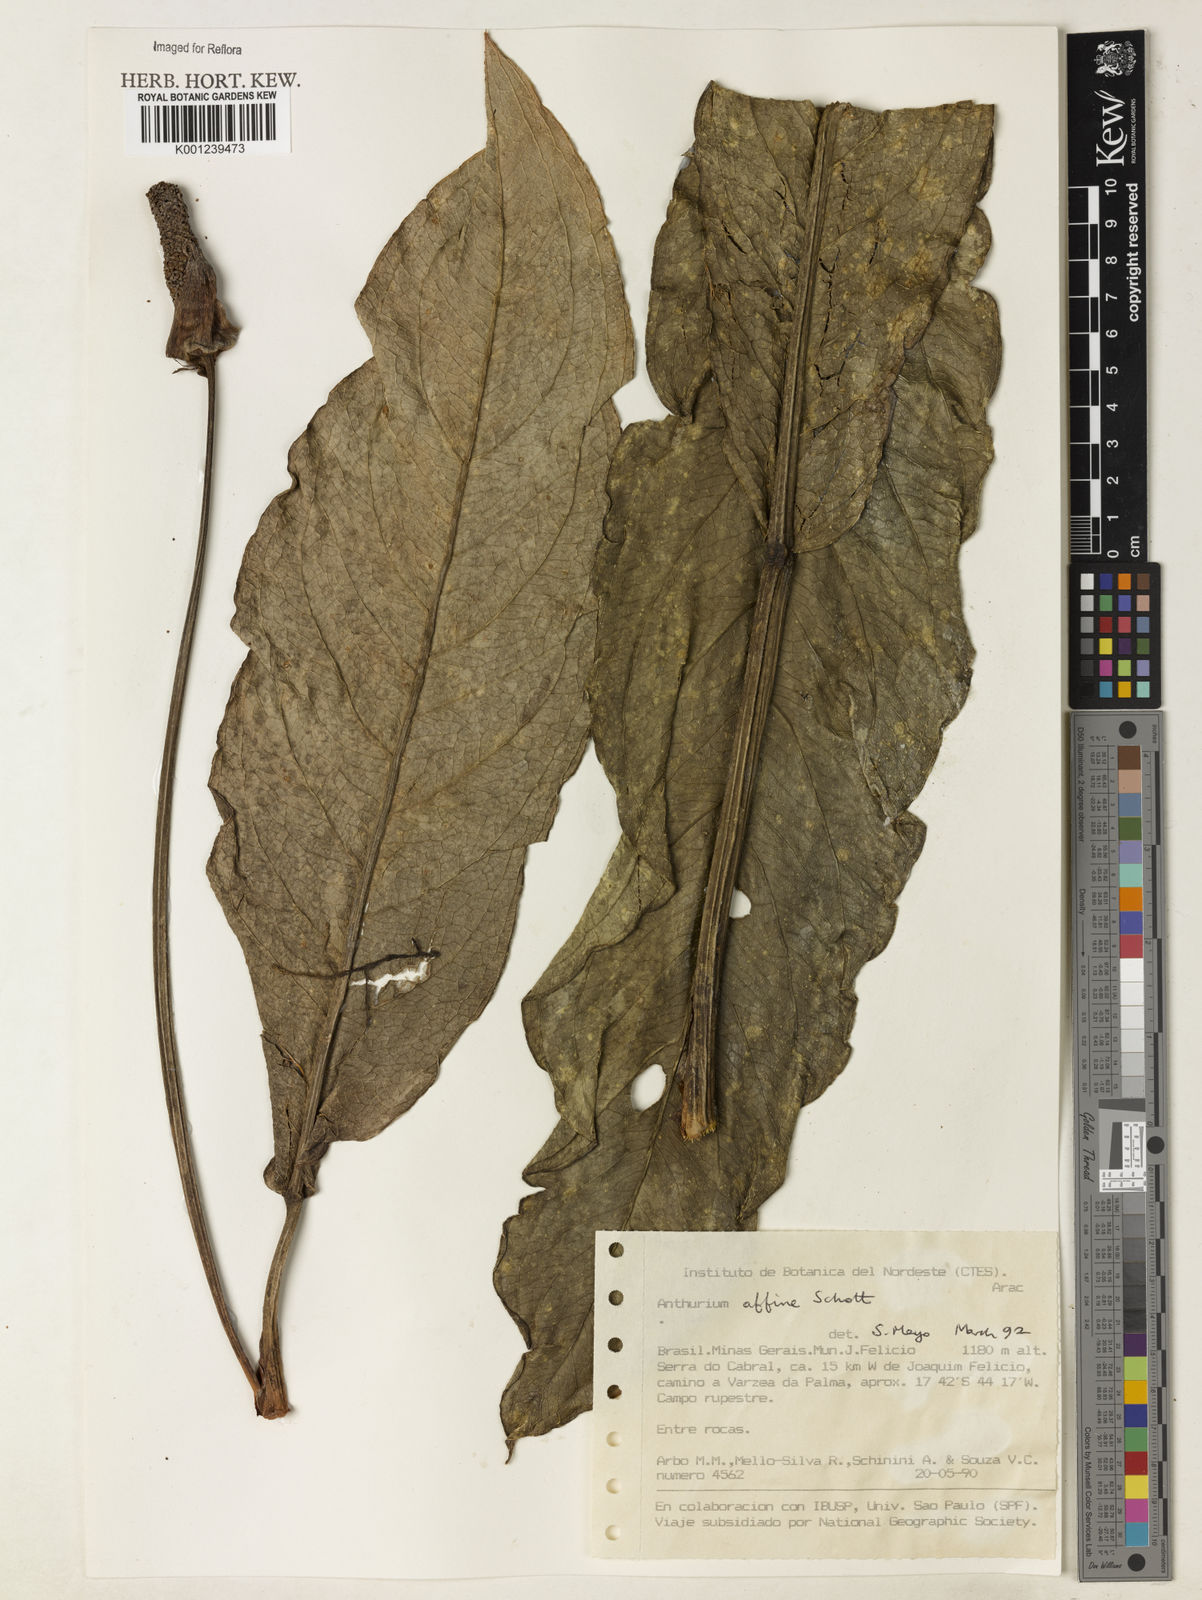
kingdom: Plantae
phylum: Tracheophyta
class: Liliopsida
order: Alismatales
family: Araceae
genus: Anthurium
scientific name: Anthurium affine
